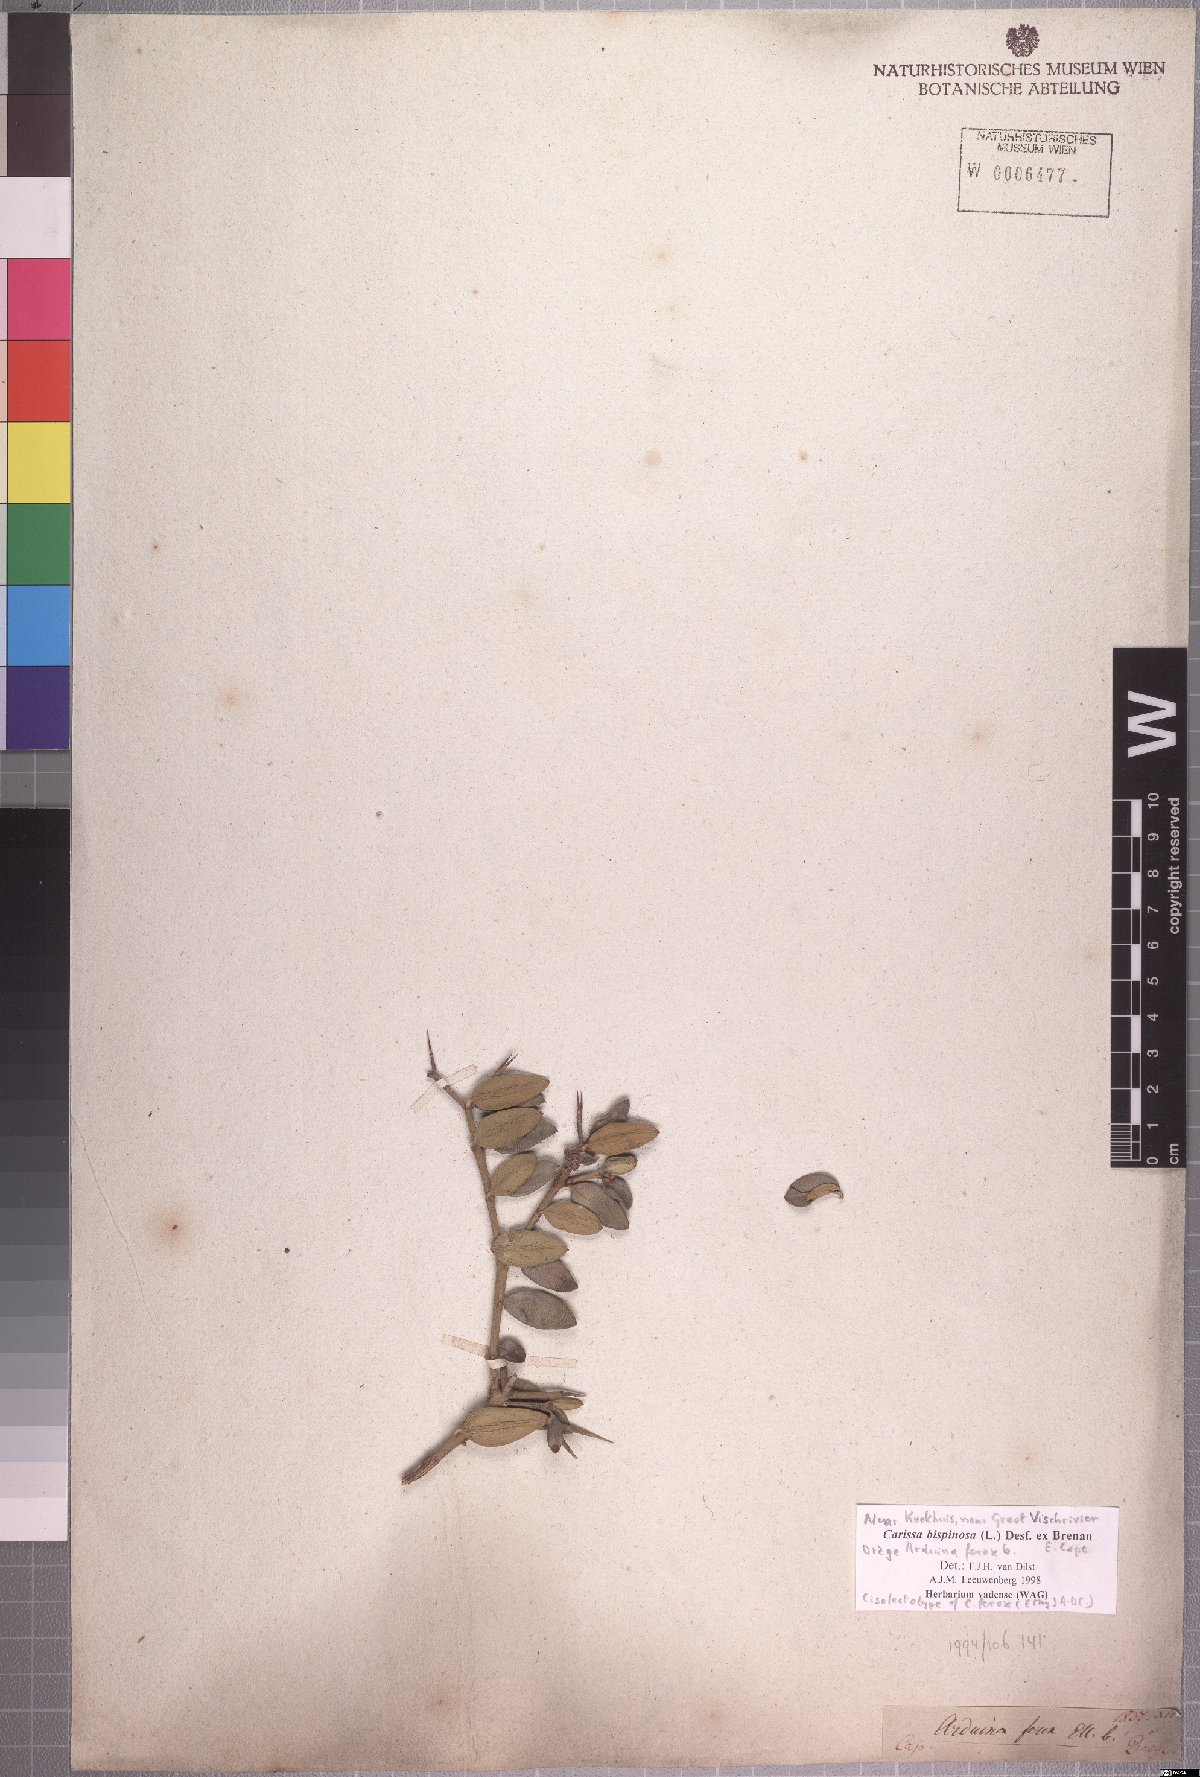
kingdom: Plantae
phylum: Tracheophyta
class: Magnoliopsida
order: Gentianales
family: Apocynaceae
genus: Carissa
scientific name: Carissa bispinosa
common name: Forest num-num
